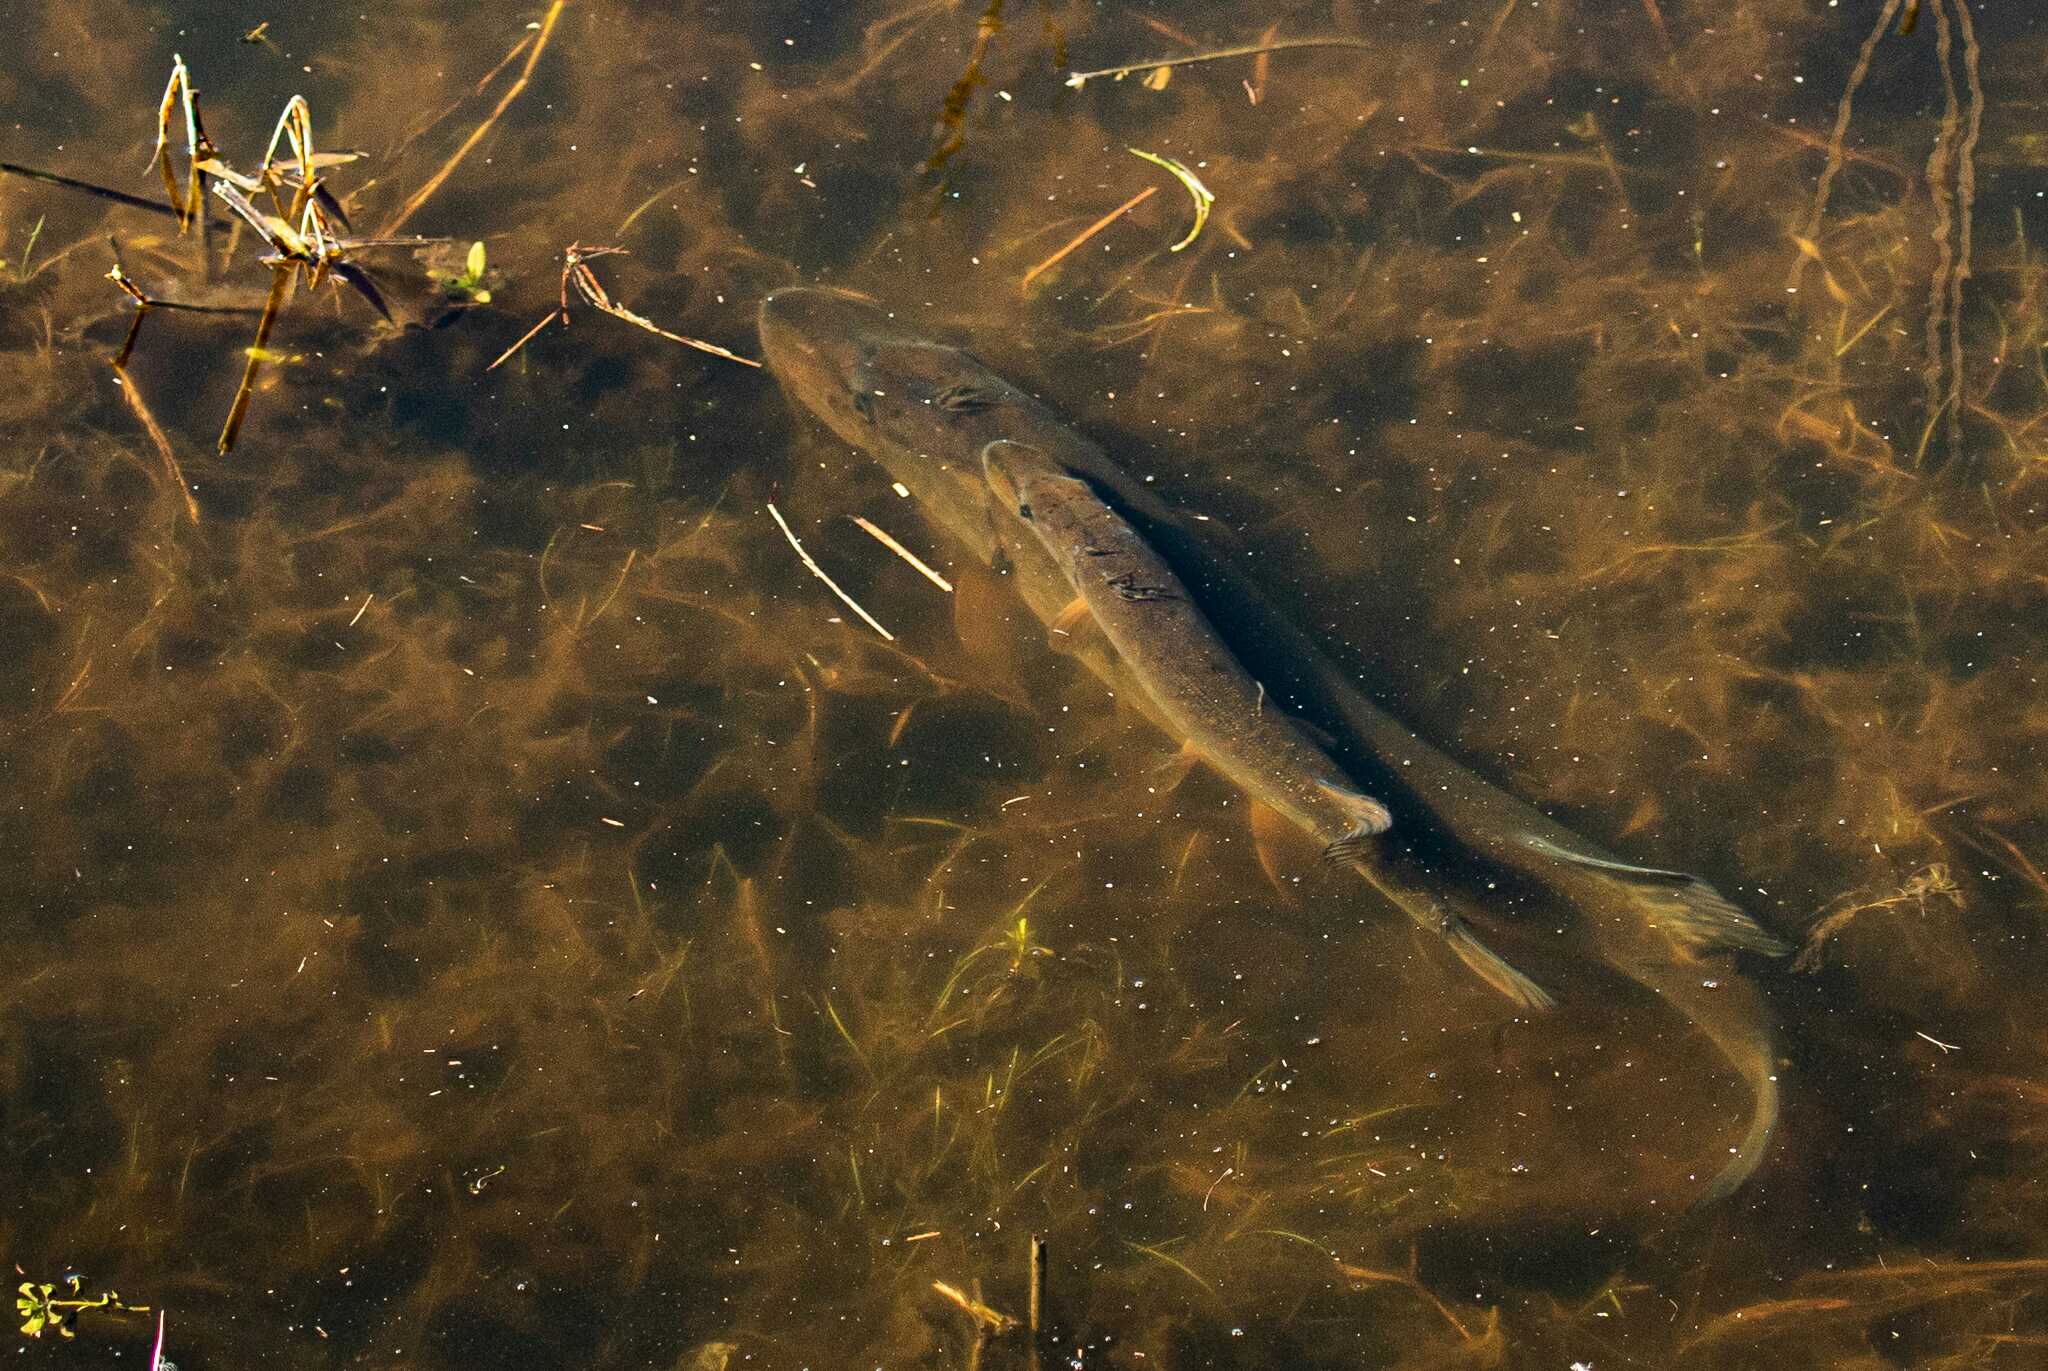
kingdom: Animalia
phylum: Chordata
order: Esociformes
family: Esocidae
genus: Esox
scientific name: Esox lucius
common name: Gedde
